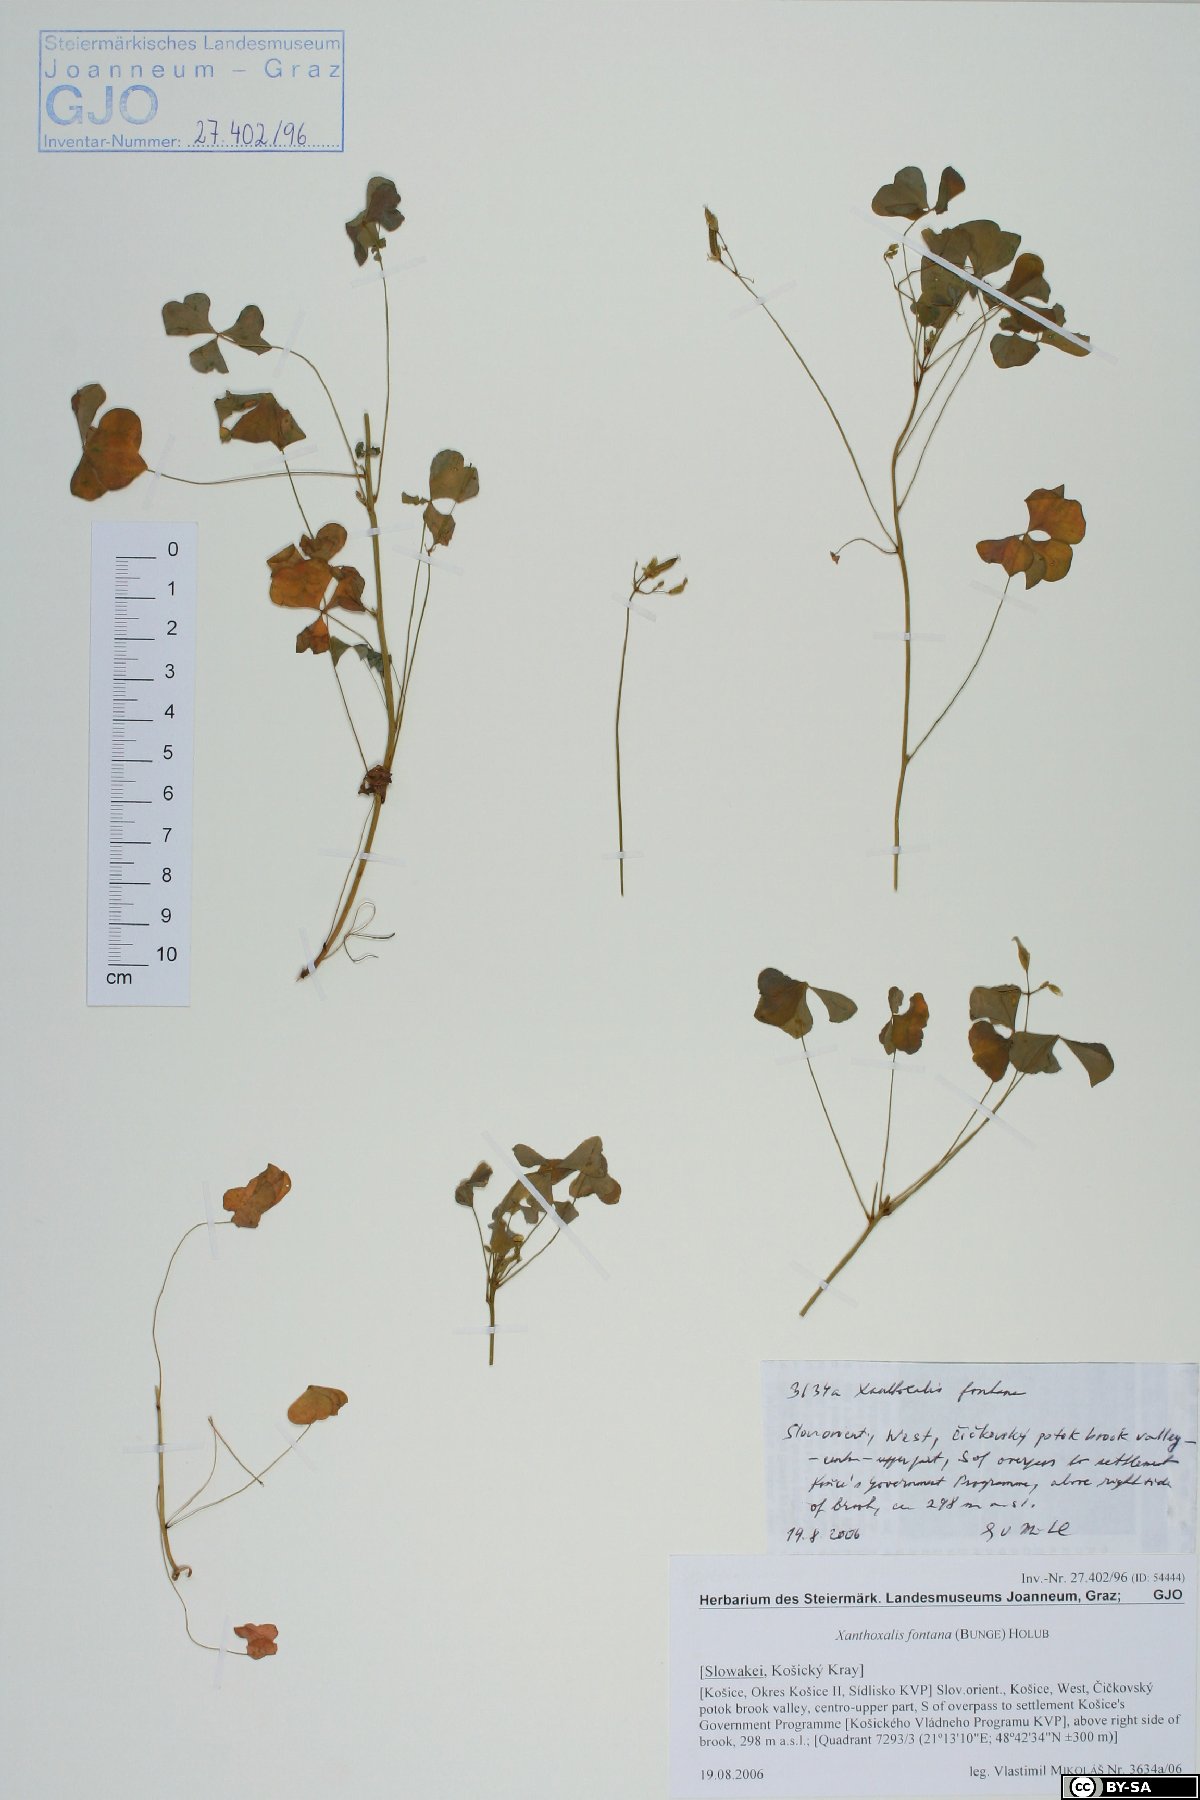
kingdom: Plantae
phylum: Tracheophyta
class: Magnoliopsida
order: Oxalidales
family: Oxalidaceae
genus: Oxalis
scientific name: Oxalis stricta
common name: Upright yellow-sorrel
